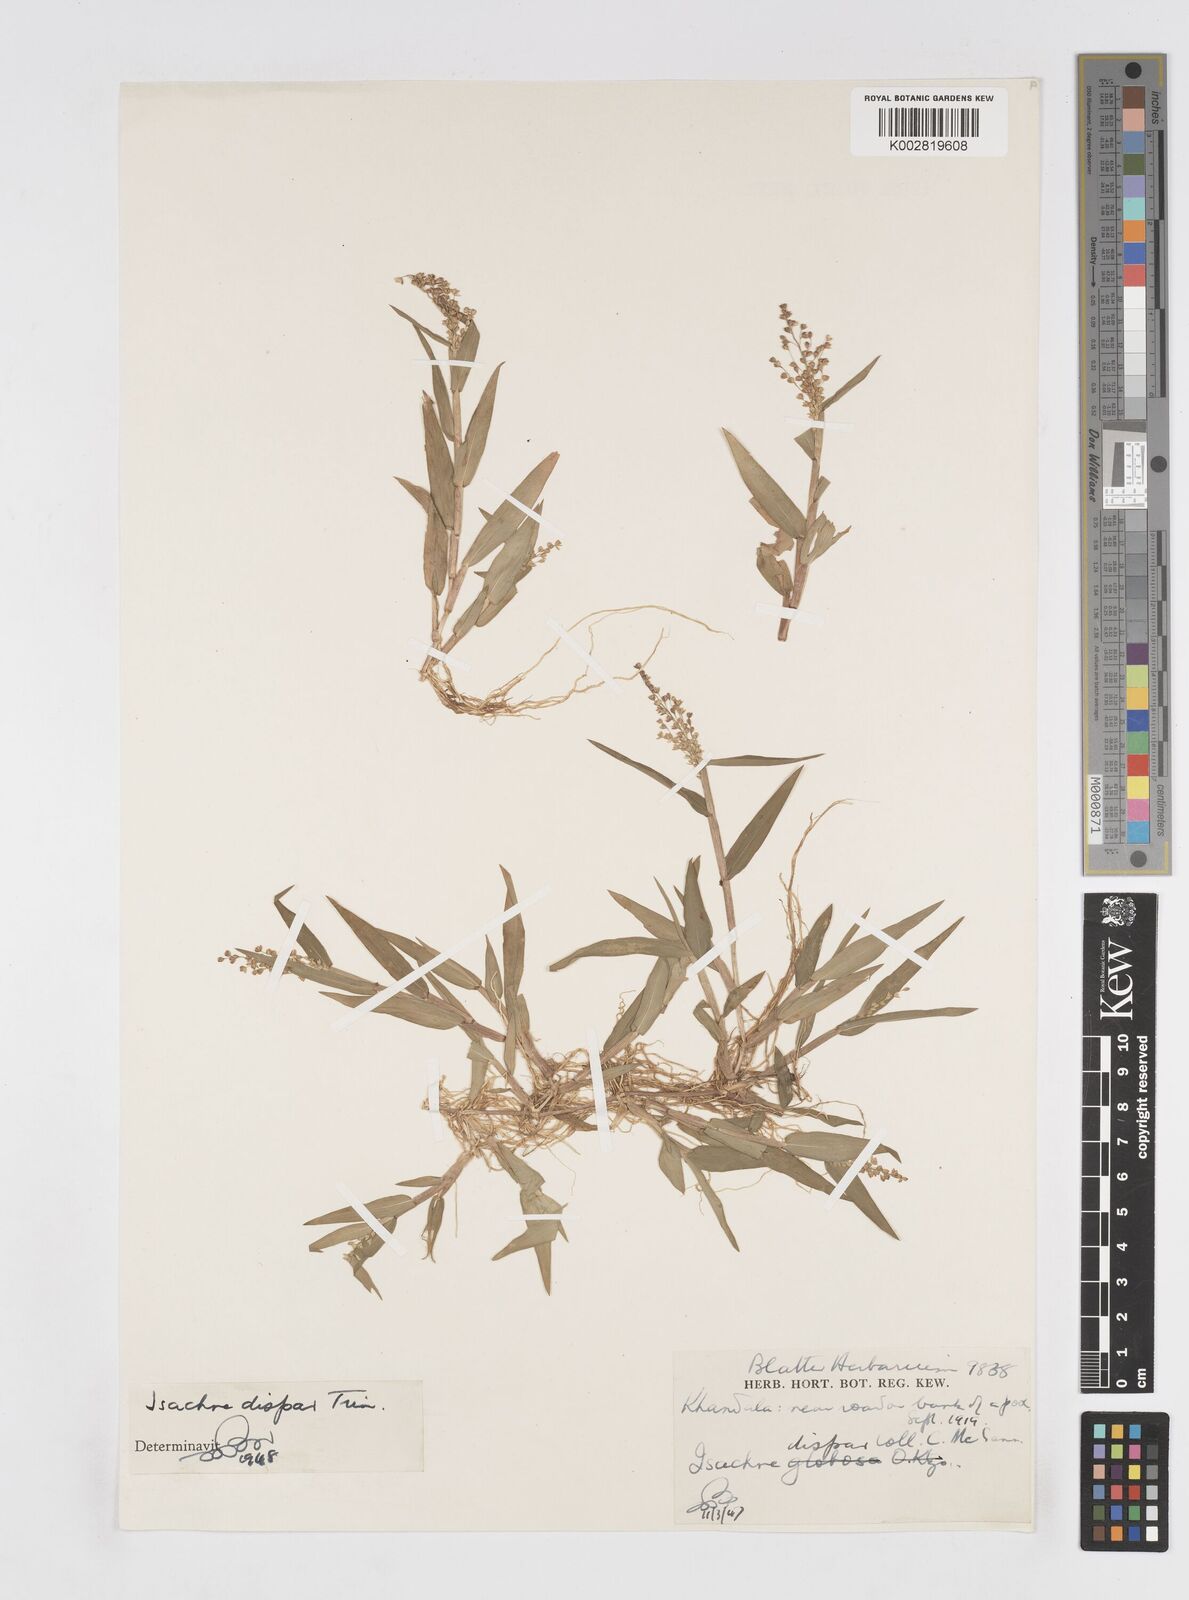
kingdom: Plantae
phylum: Tracheophyta
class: Liliopsida
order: Poales
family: Poaceae
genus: Isachne
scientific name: Isachne globosa
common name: Swamp millet
